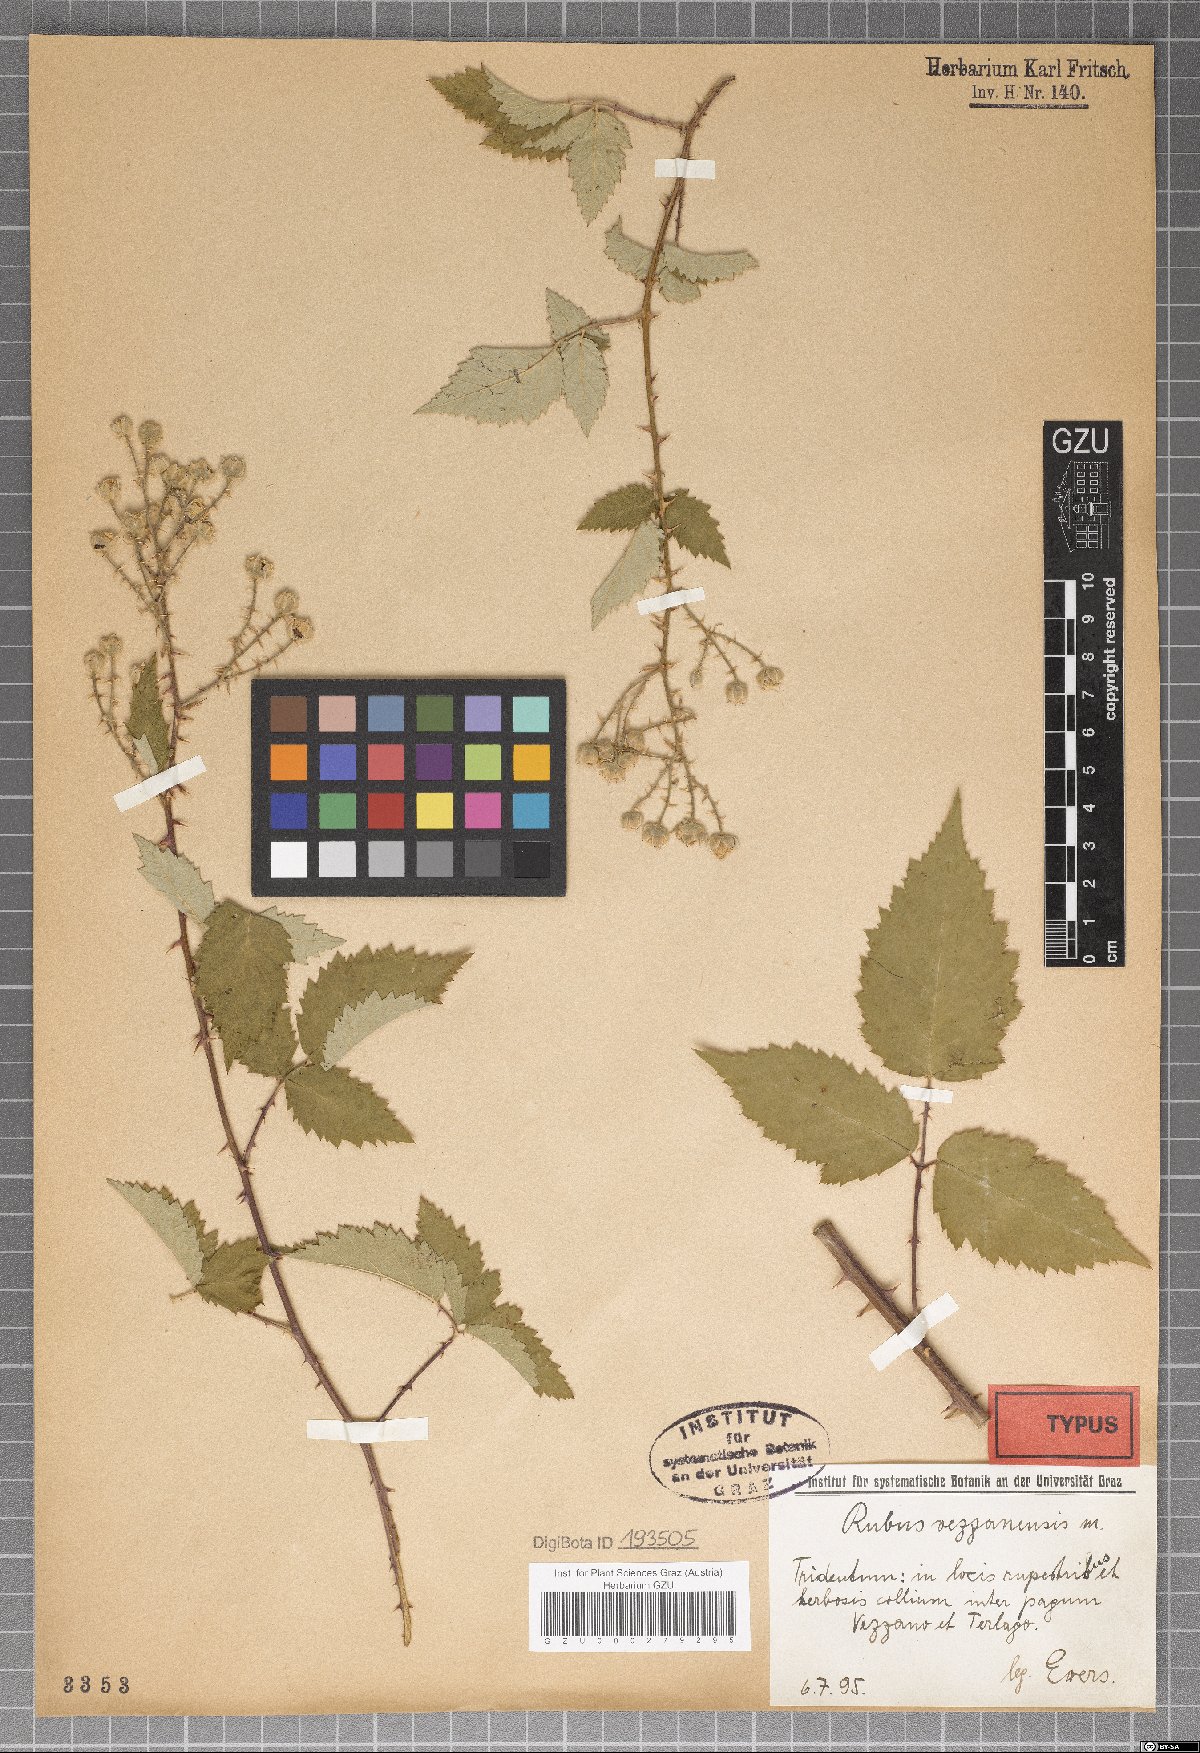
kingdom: Plantae
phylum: Tracheophyta
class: Magnoliopsida
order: Rosales
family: Rosaceae
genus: Rubus
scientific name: Rubus vezzanensis
